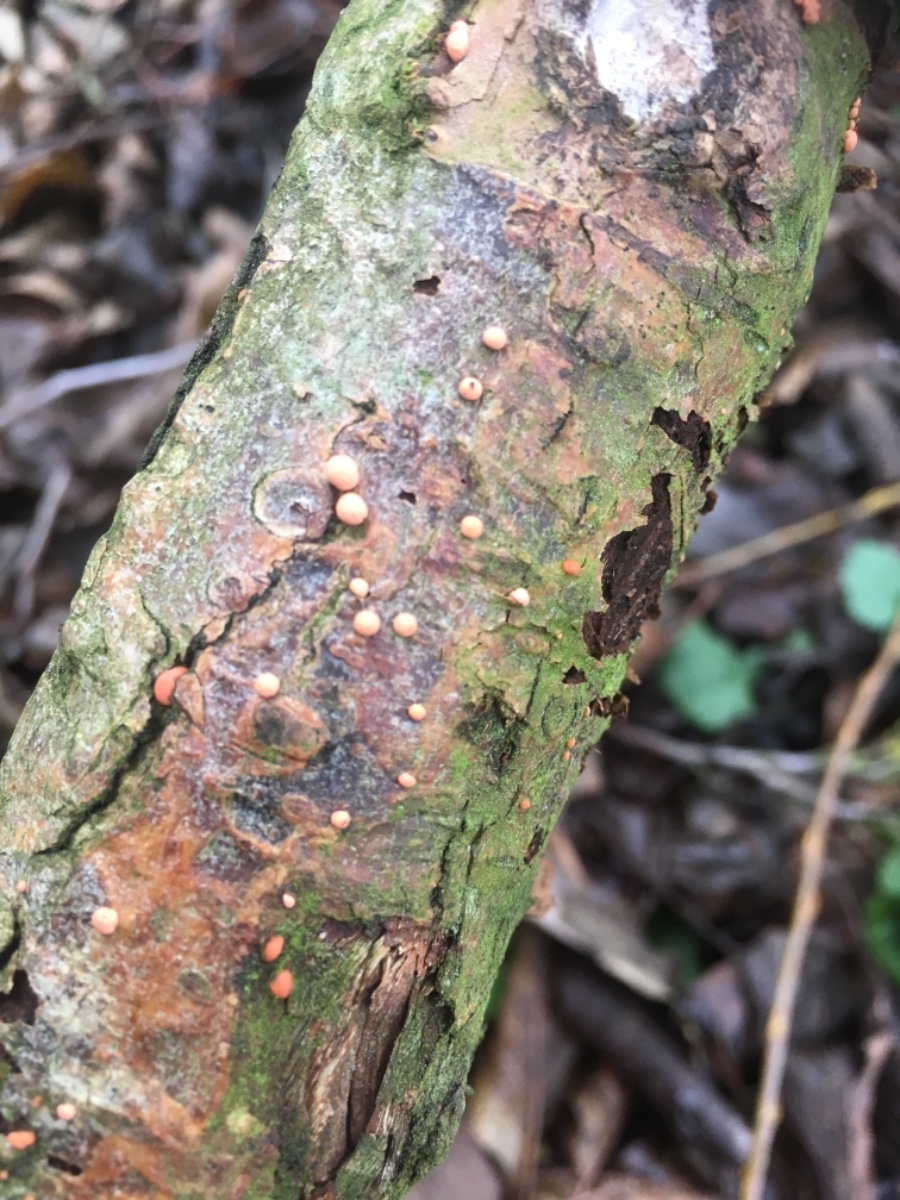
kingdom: Fungi
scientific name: Fungi
